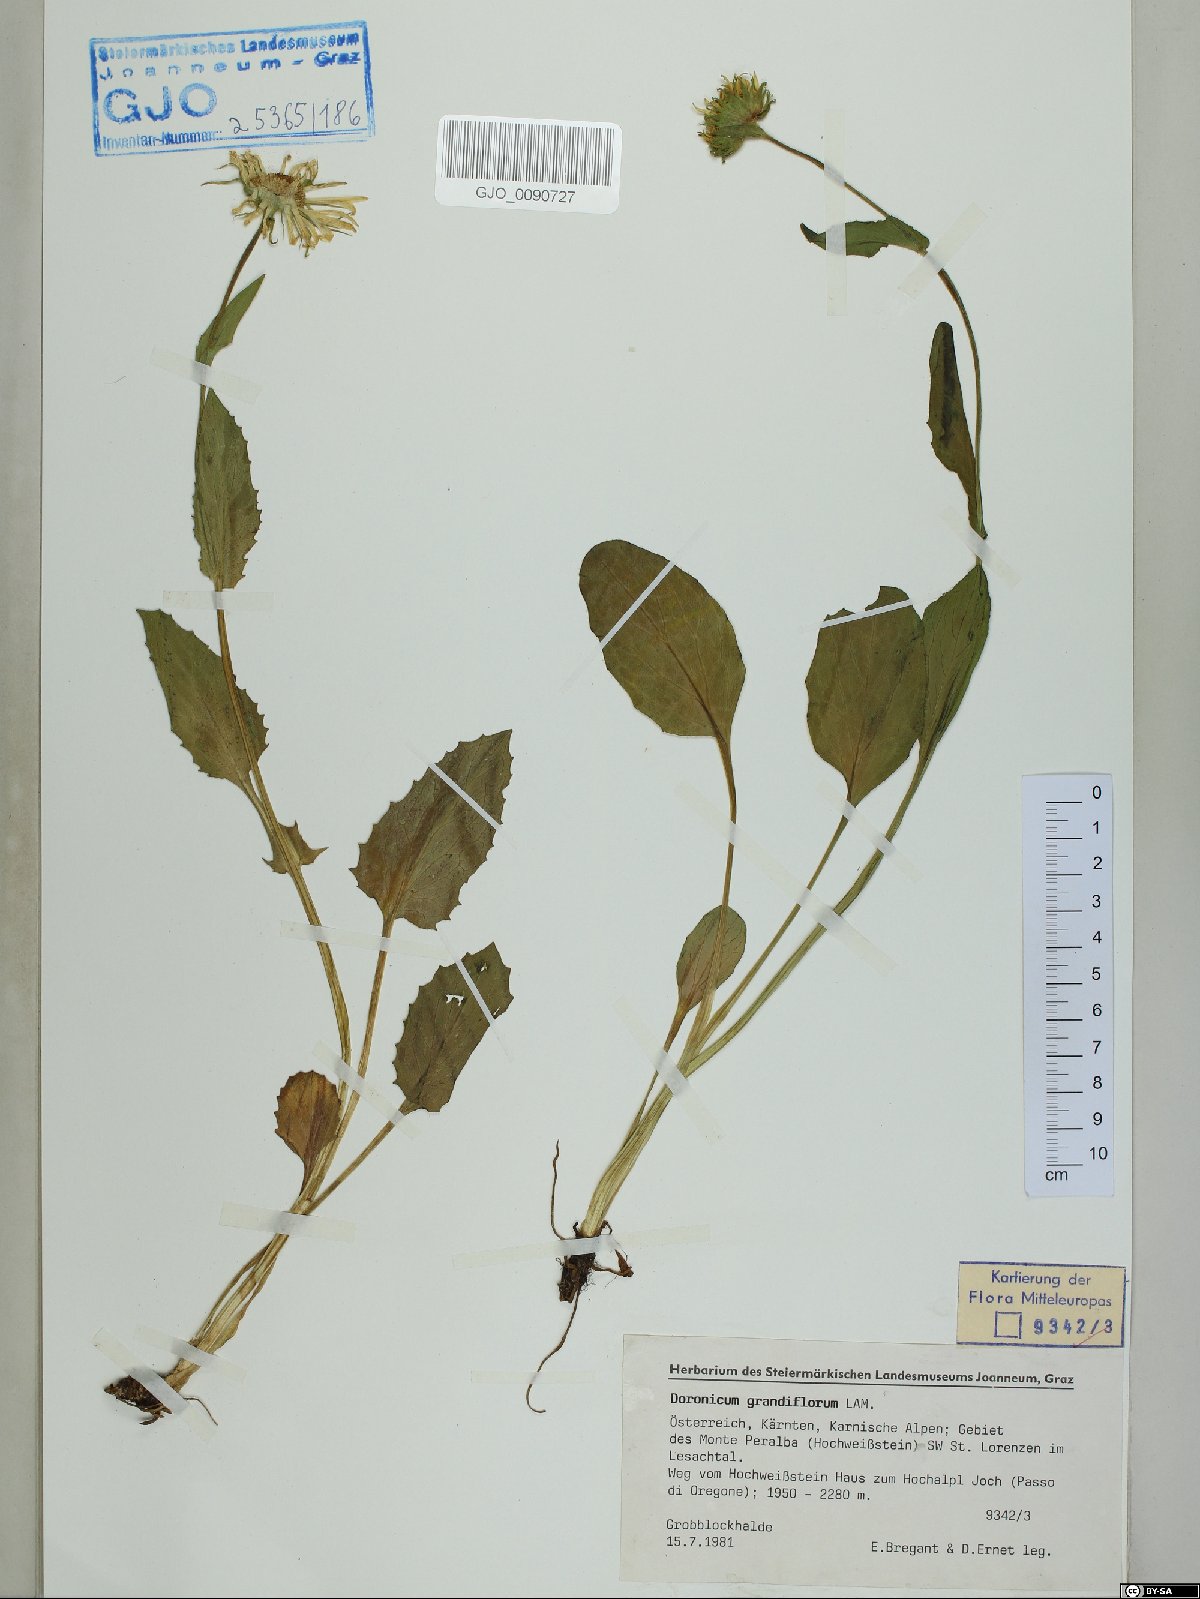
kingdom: Plantae
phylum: Tracheophyta
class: Magnoliopsida
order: Asterales
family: Asteraceae
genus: Doronicum
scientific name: Doronicum grandiflorum
